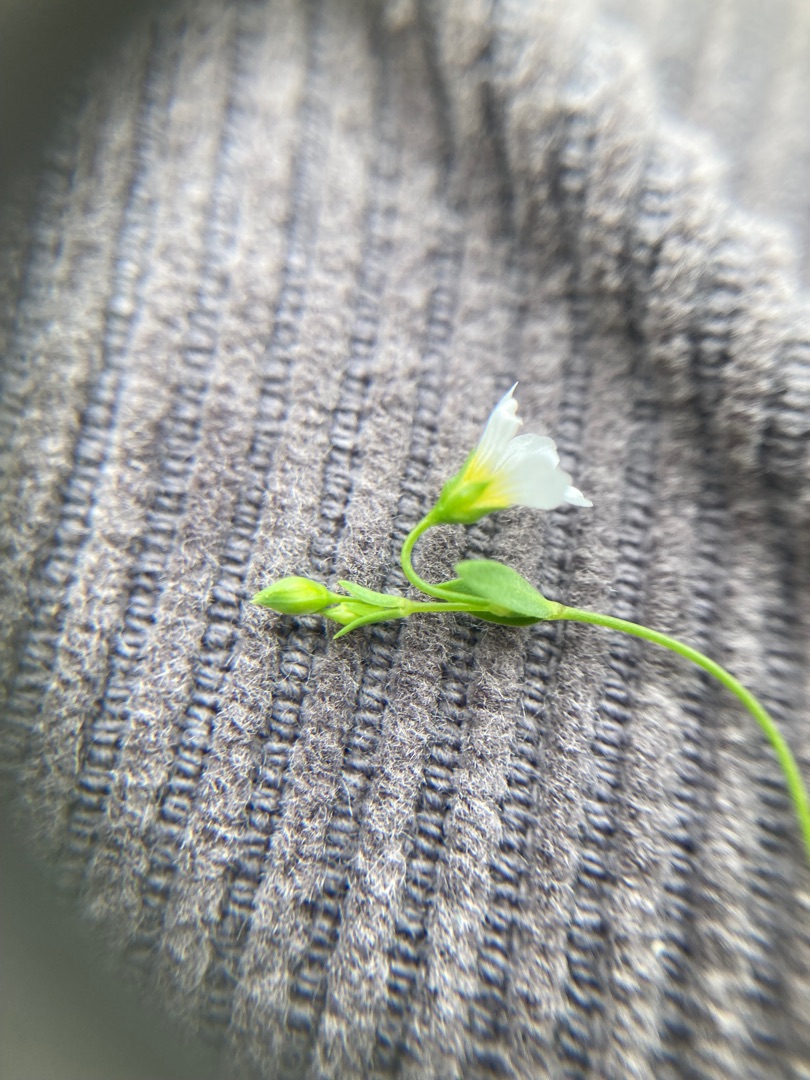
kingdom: Plantae
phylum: Tracheophyta
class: Magnoliopsida
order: Malpighiales
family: Linaceae
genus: Linum
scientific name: Linum catharticum
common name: Vild hør
